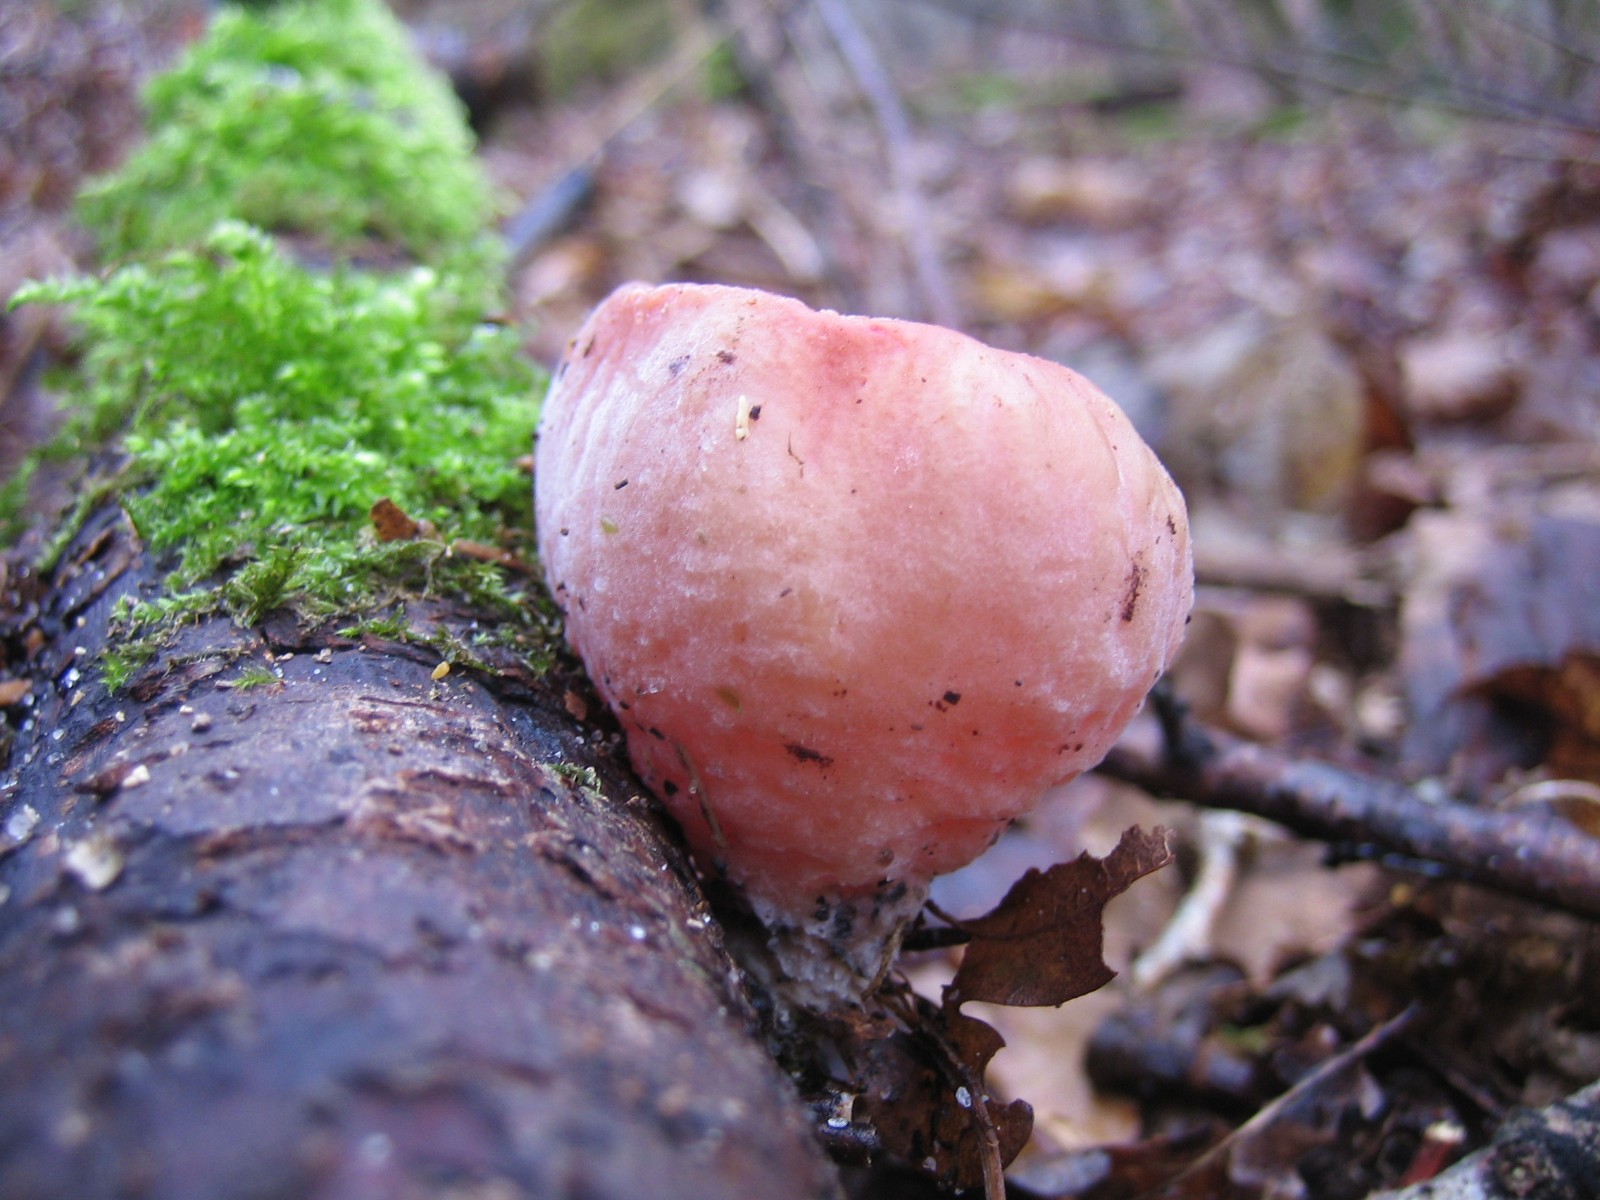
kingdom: Fungi
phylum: Ascomycota
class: Pezizomycetes
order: Pezizales
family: Sarcoscyphaceae
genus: Sarcoscypha
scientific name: Sarcoscypha austriaca
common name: krølhåret pragtbæger
